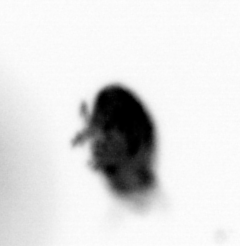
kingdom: Animalia
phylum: Arthropoda
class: Maxillopoda
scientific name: Maxillopoda
